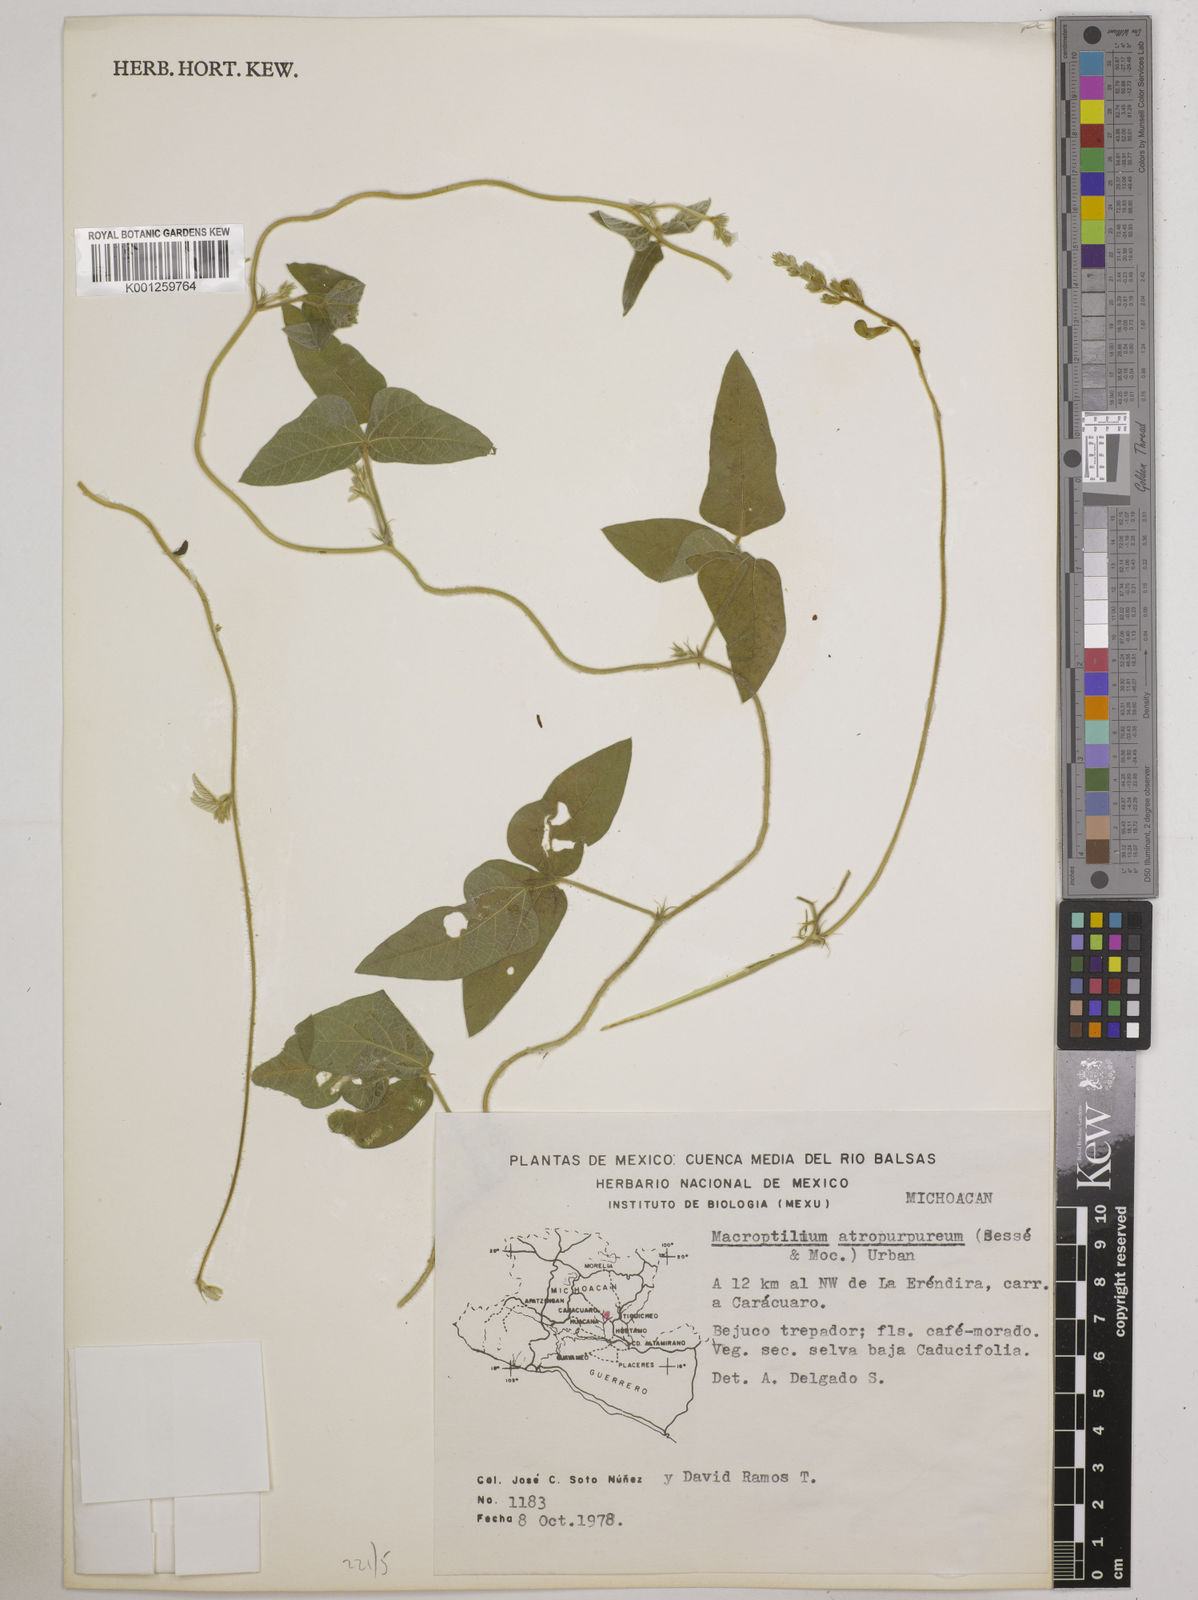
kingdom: Plantae
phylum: Tracheophyta
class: Magnoliopsida
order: Fabales
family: Fabaceae
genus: Macroptilium
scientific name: Macroptilium atropurpureum
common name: Purple bushbean
